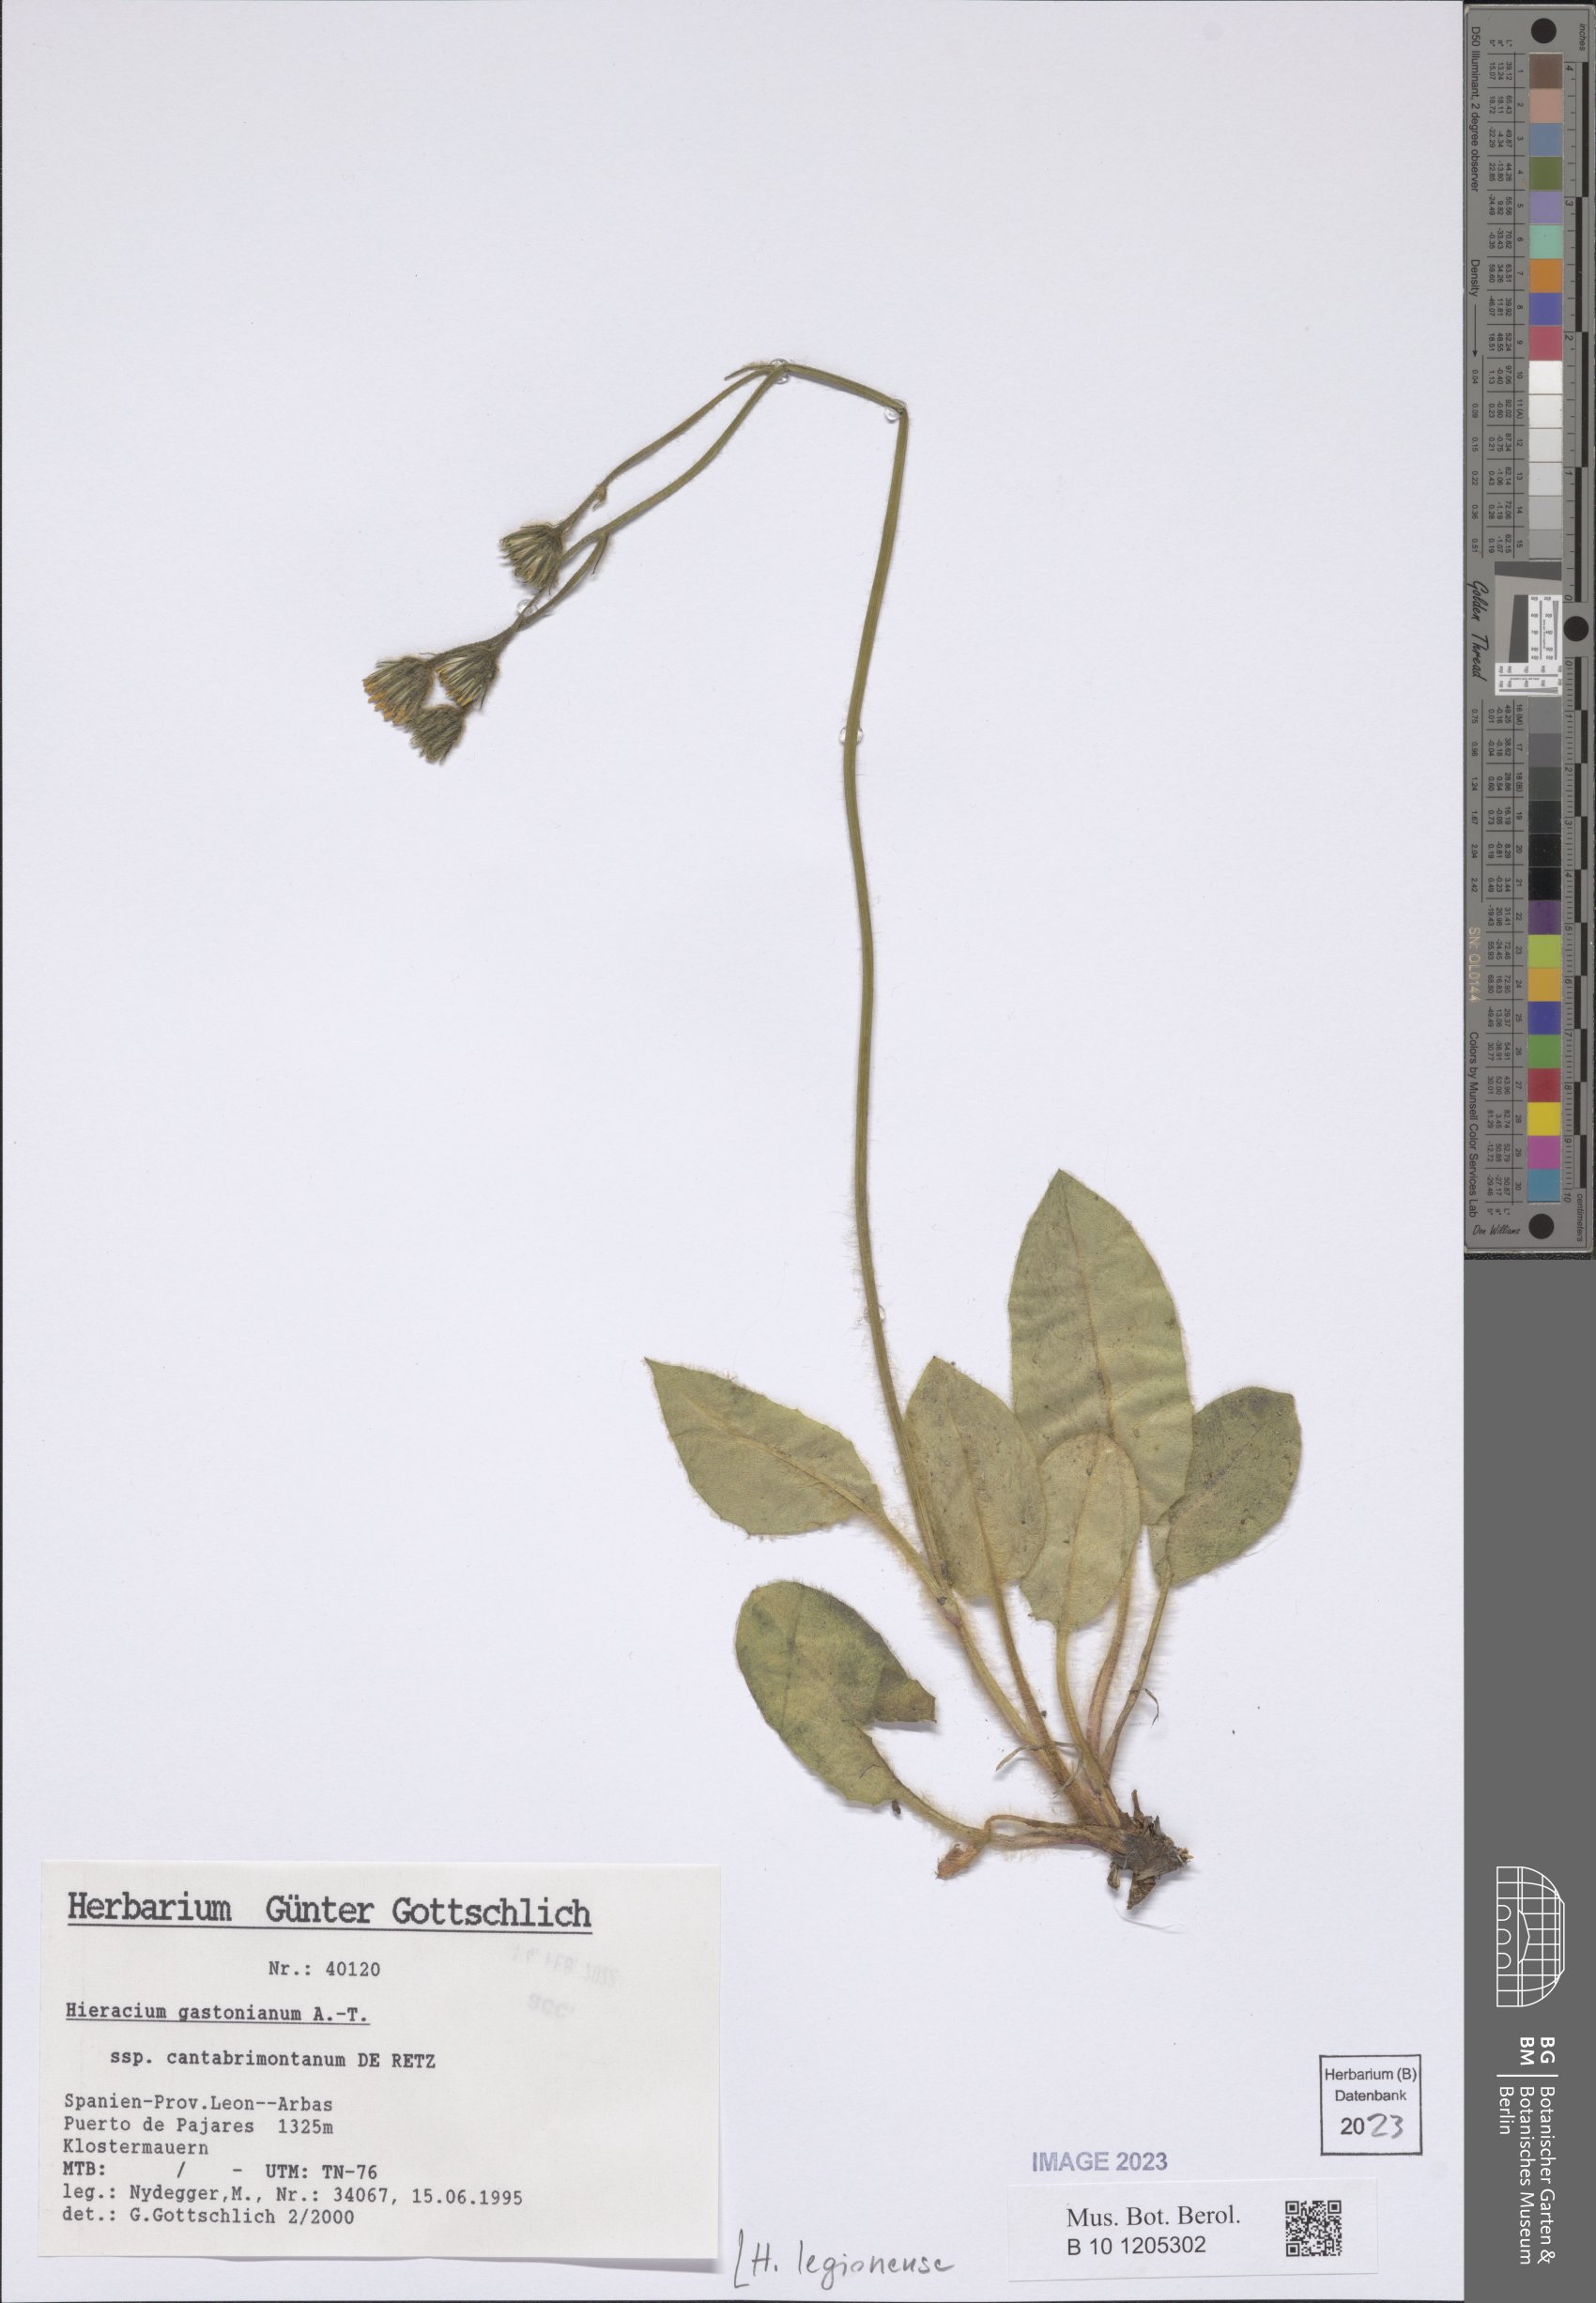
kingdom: Plantae
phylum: Tracheophyta
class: Magnoliopsida
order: Asterales
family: Asteraceae
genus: Hieracium
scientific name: Hieracium legionense
